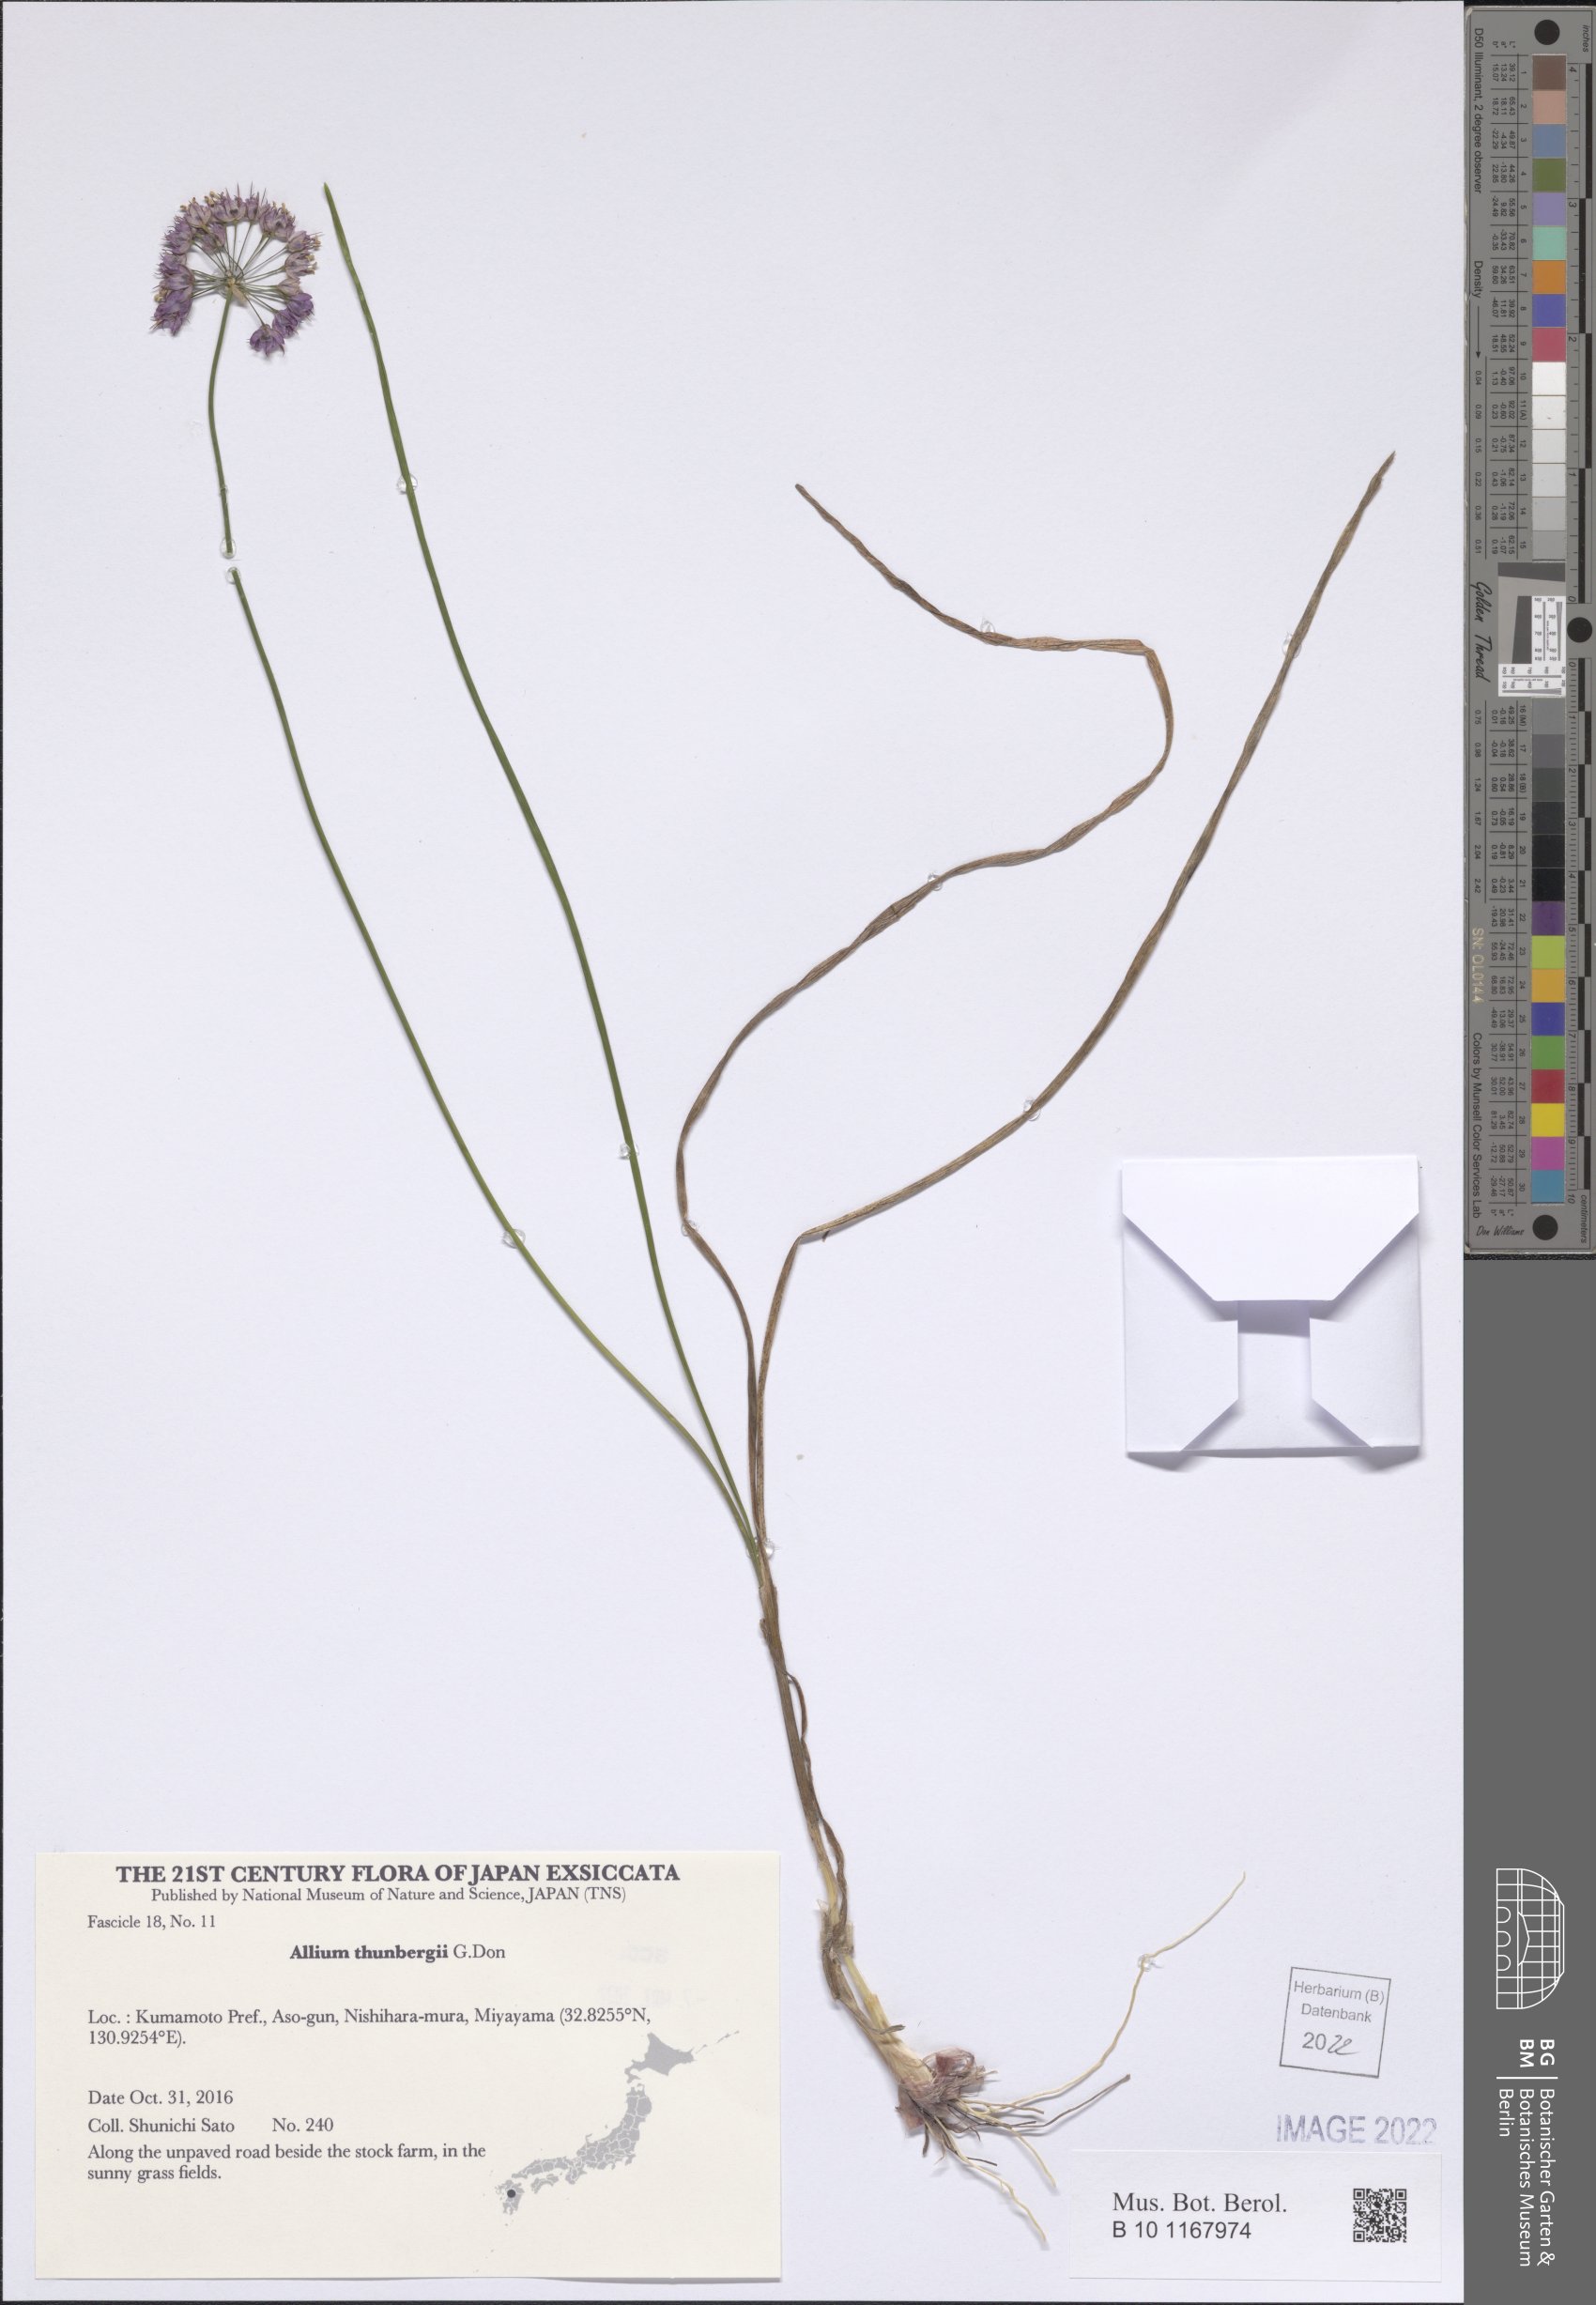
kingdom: Plantae
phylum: Tracheophyta
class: Liliopsida
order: Asparagales
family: Amaryllidaceae
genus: Allium
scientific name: Allium thunbergii
